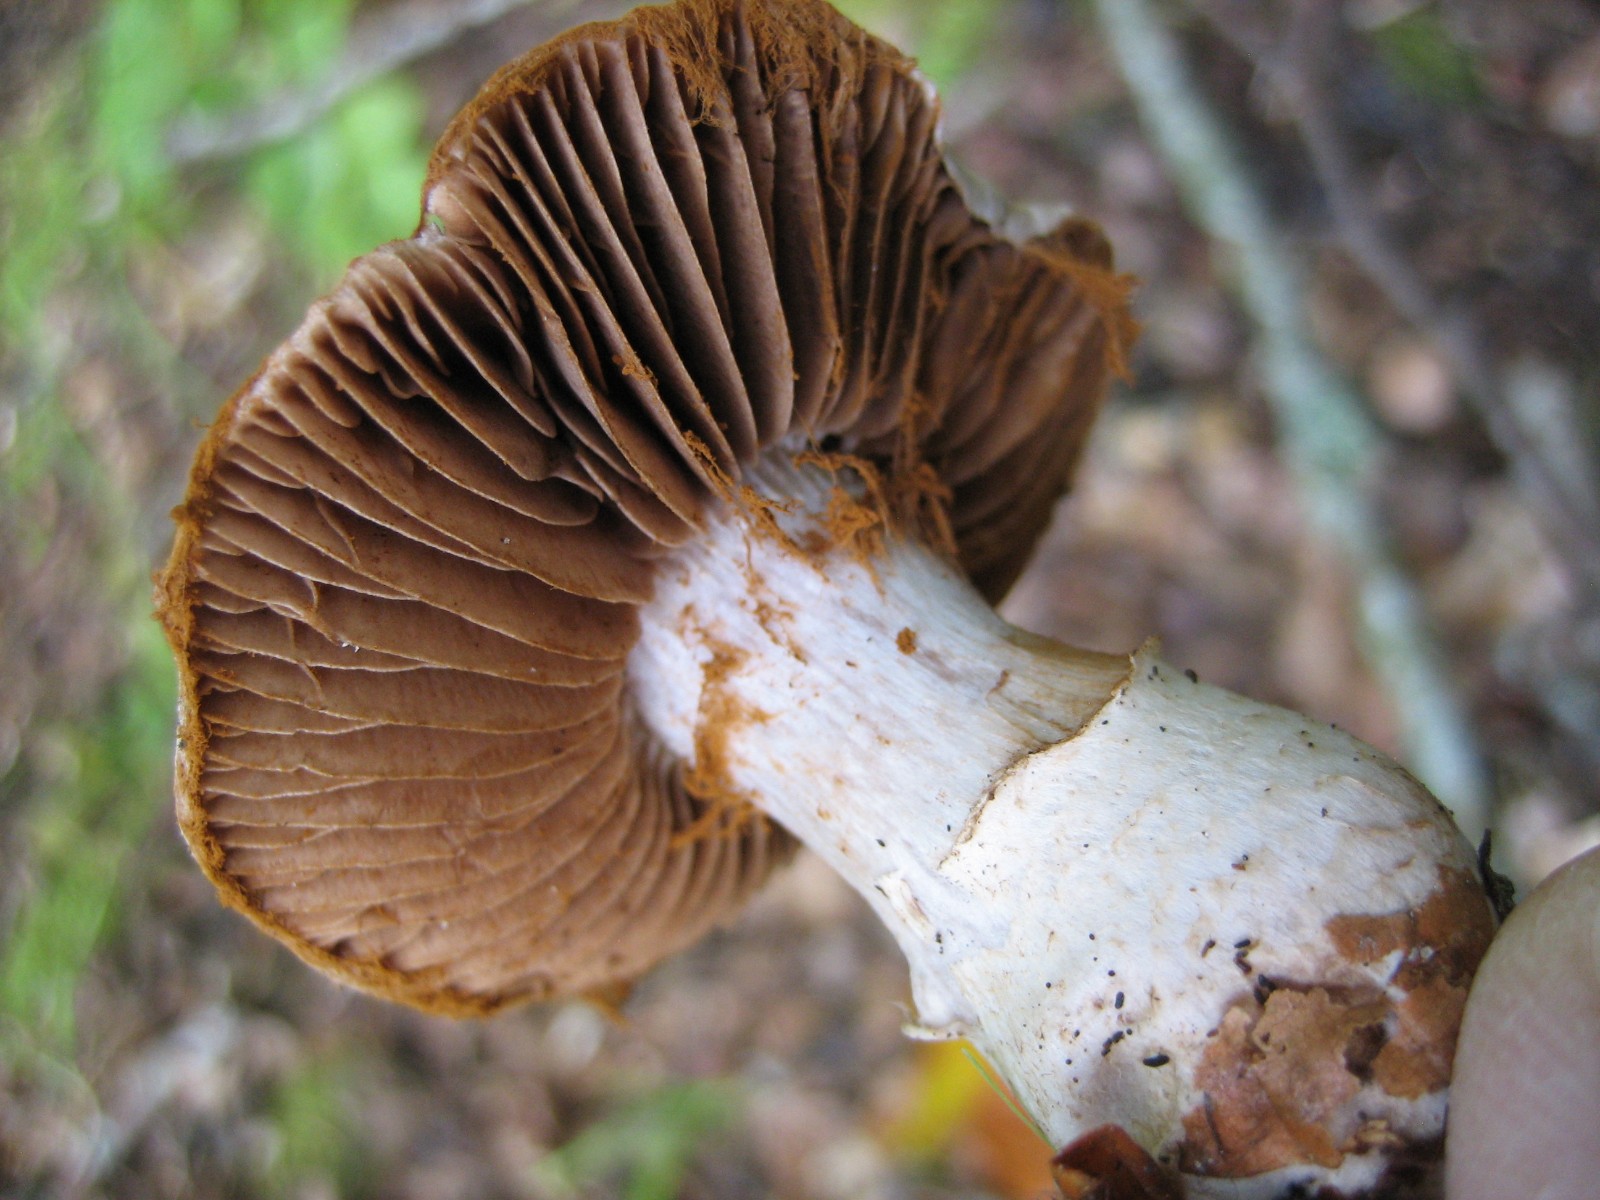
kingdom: Fungi
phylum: Basidiomycota
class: Agaricomycetes
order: Agaricales
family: Cortinariaceae
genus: Cortinarius
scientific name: Cortinarius torvus
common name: champignonagtig slørhat
